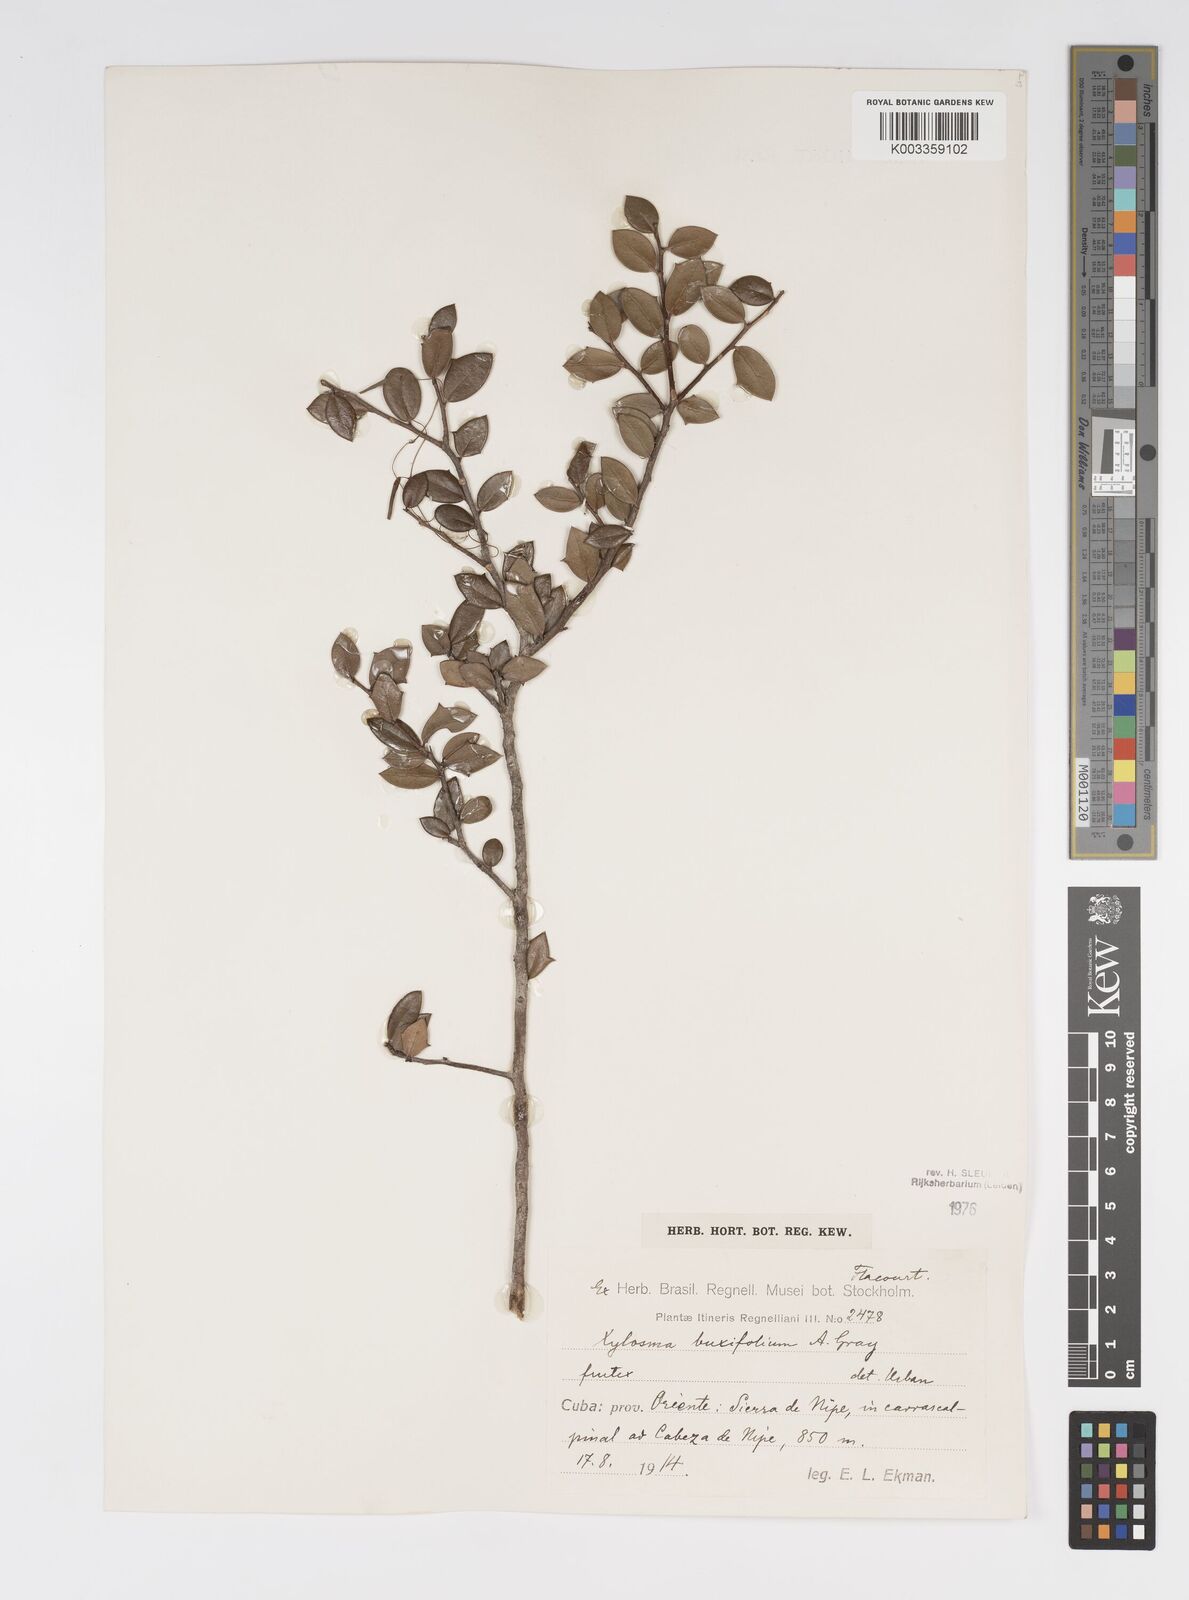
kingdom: Plantae
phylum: Tracheophyta
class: Magnoliopsida
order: Malpighiales
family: Salicaceae
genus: Xylosma
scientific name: Xylosma buxifolia
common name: Cockspur
